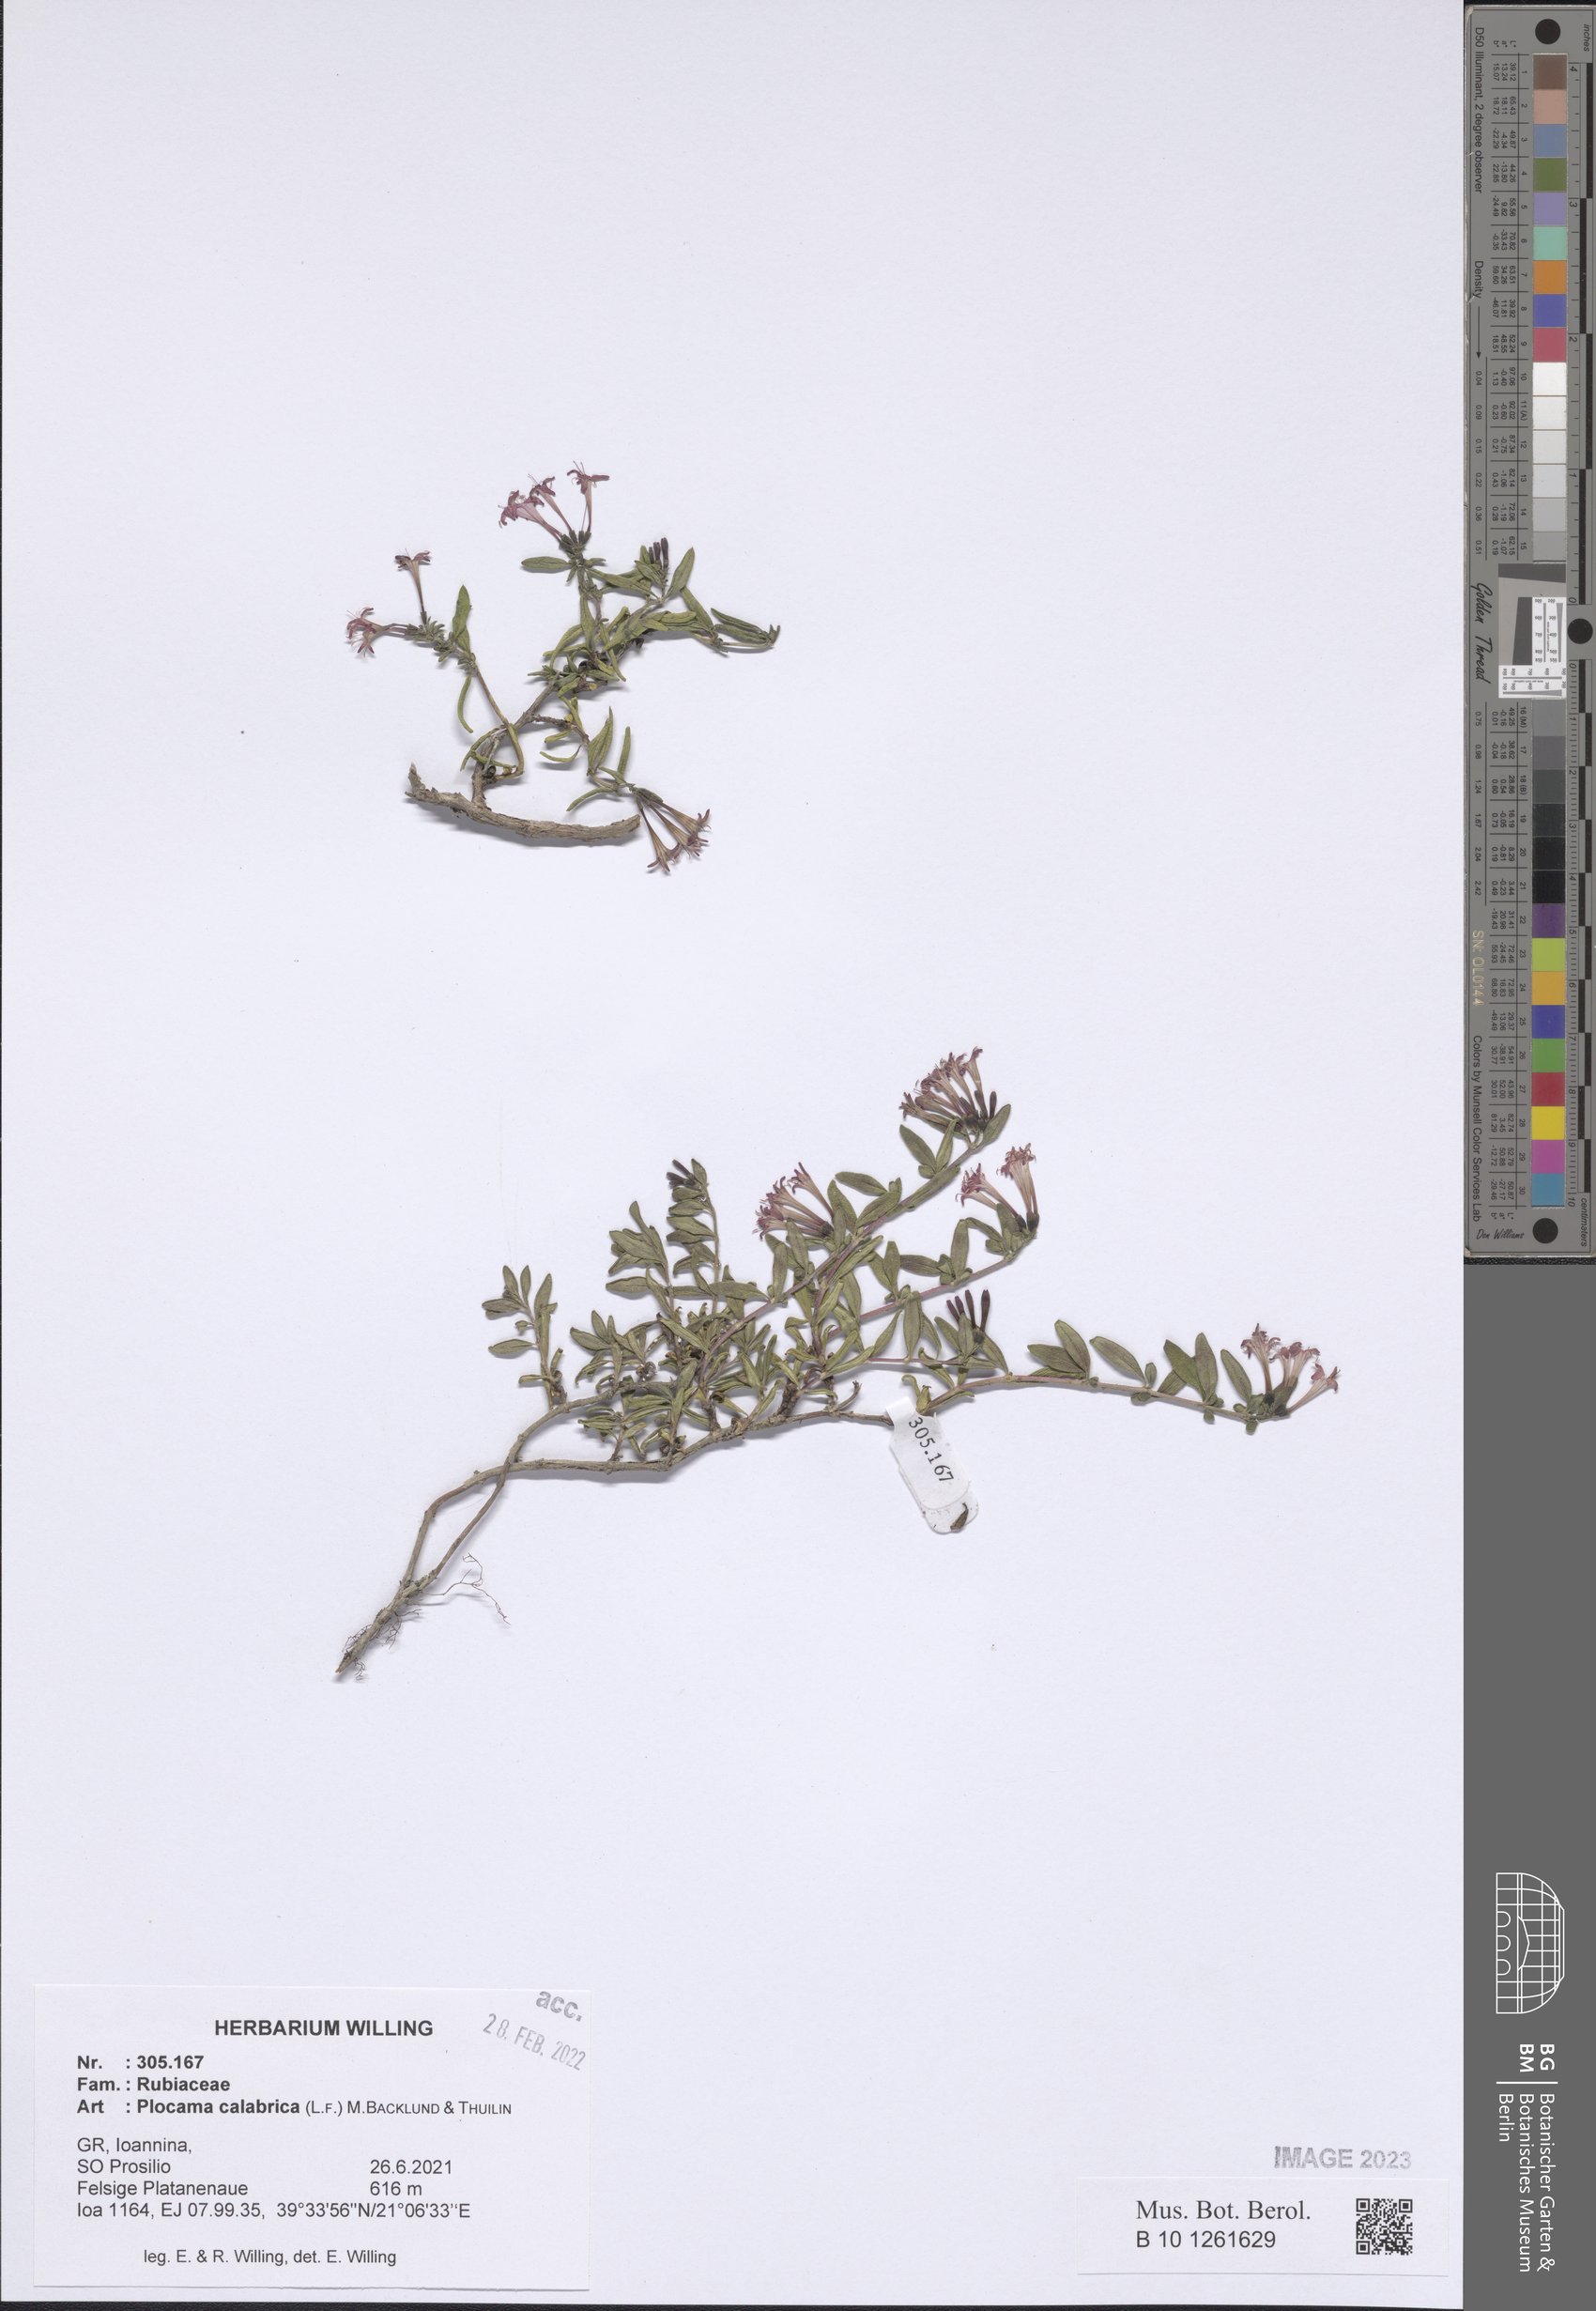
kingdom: Plantae
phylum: Tracheophyta
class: Magnoliopsida
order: Gentianales
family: Rubiaceae
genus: Plocama
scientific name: Plocama calabrica
